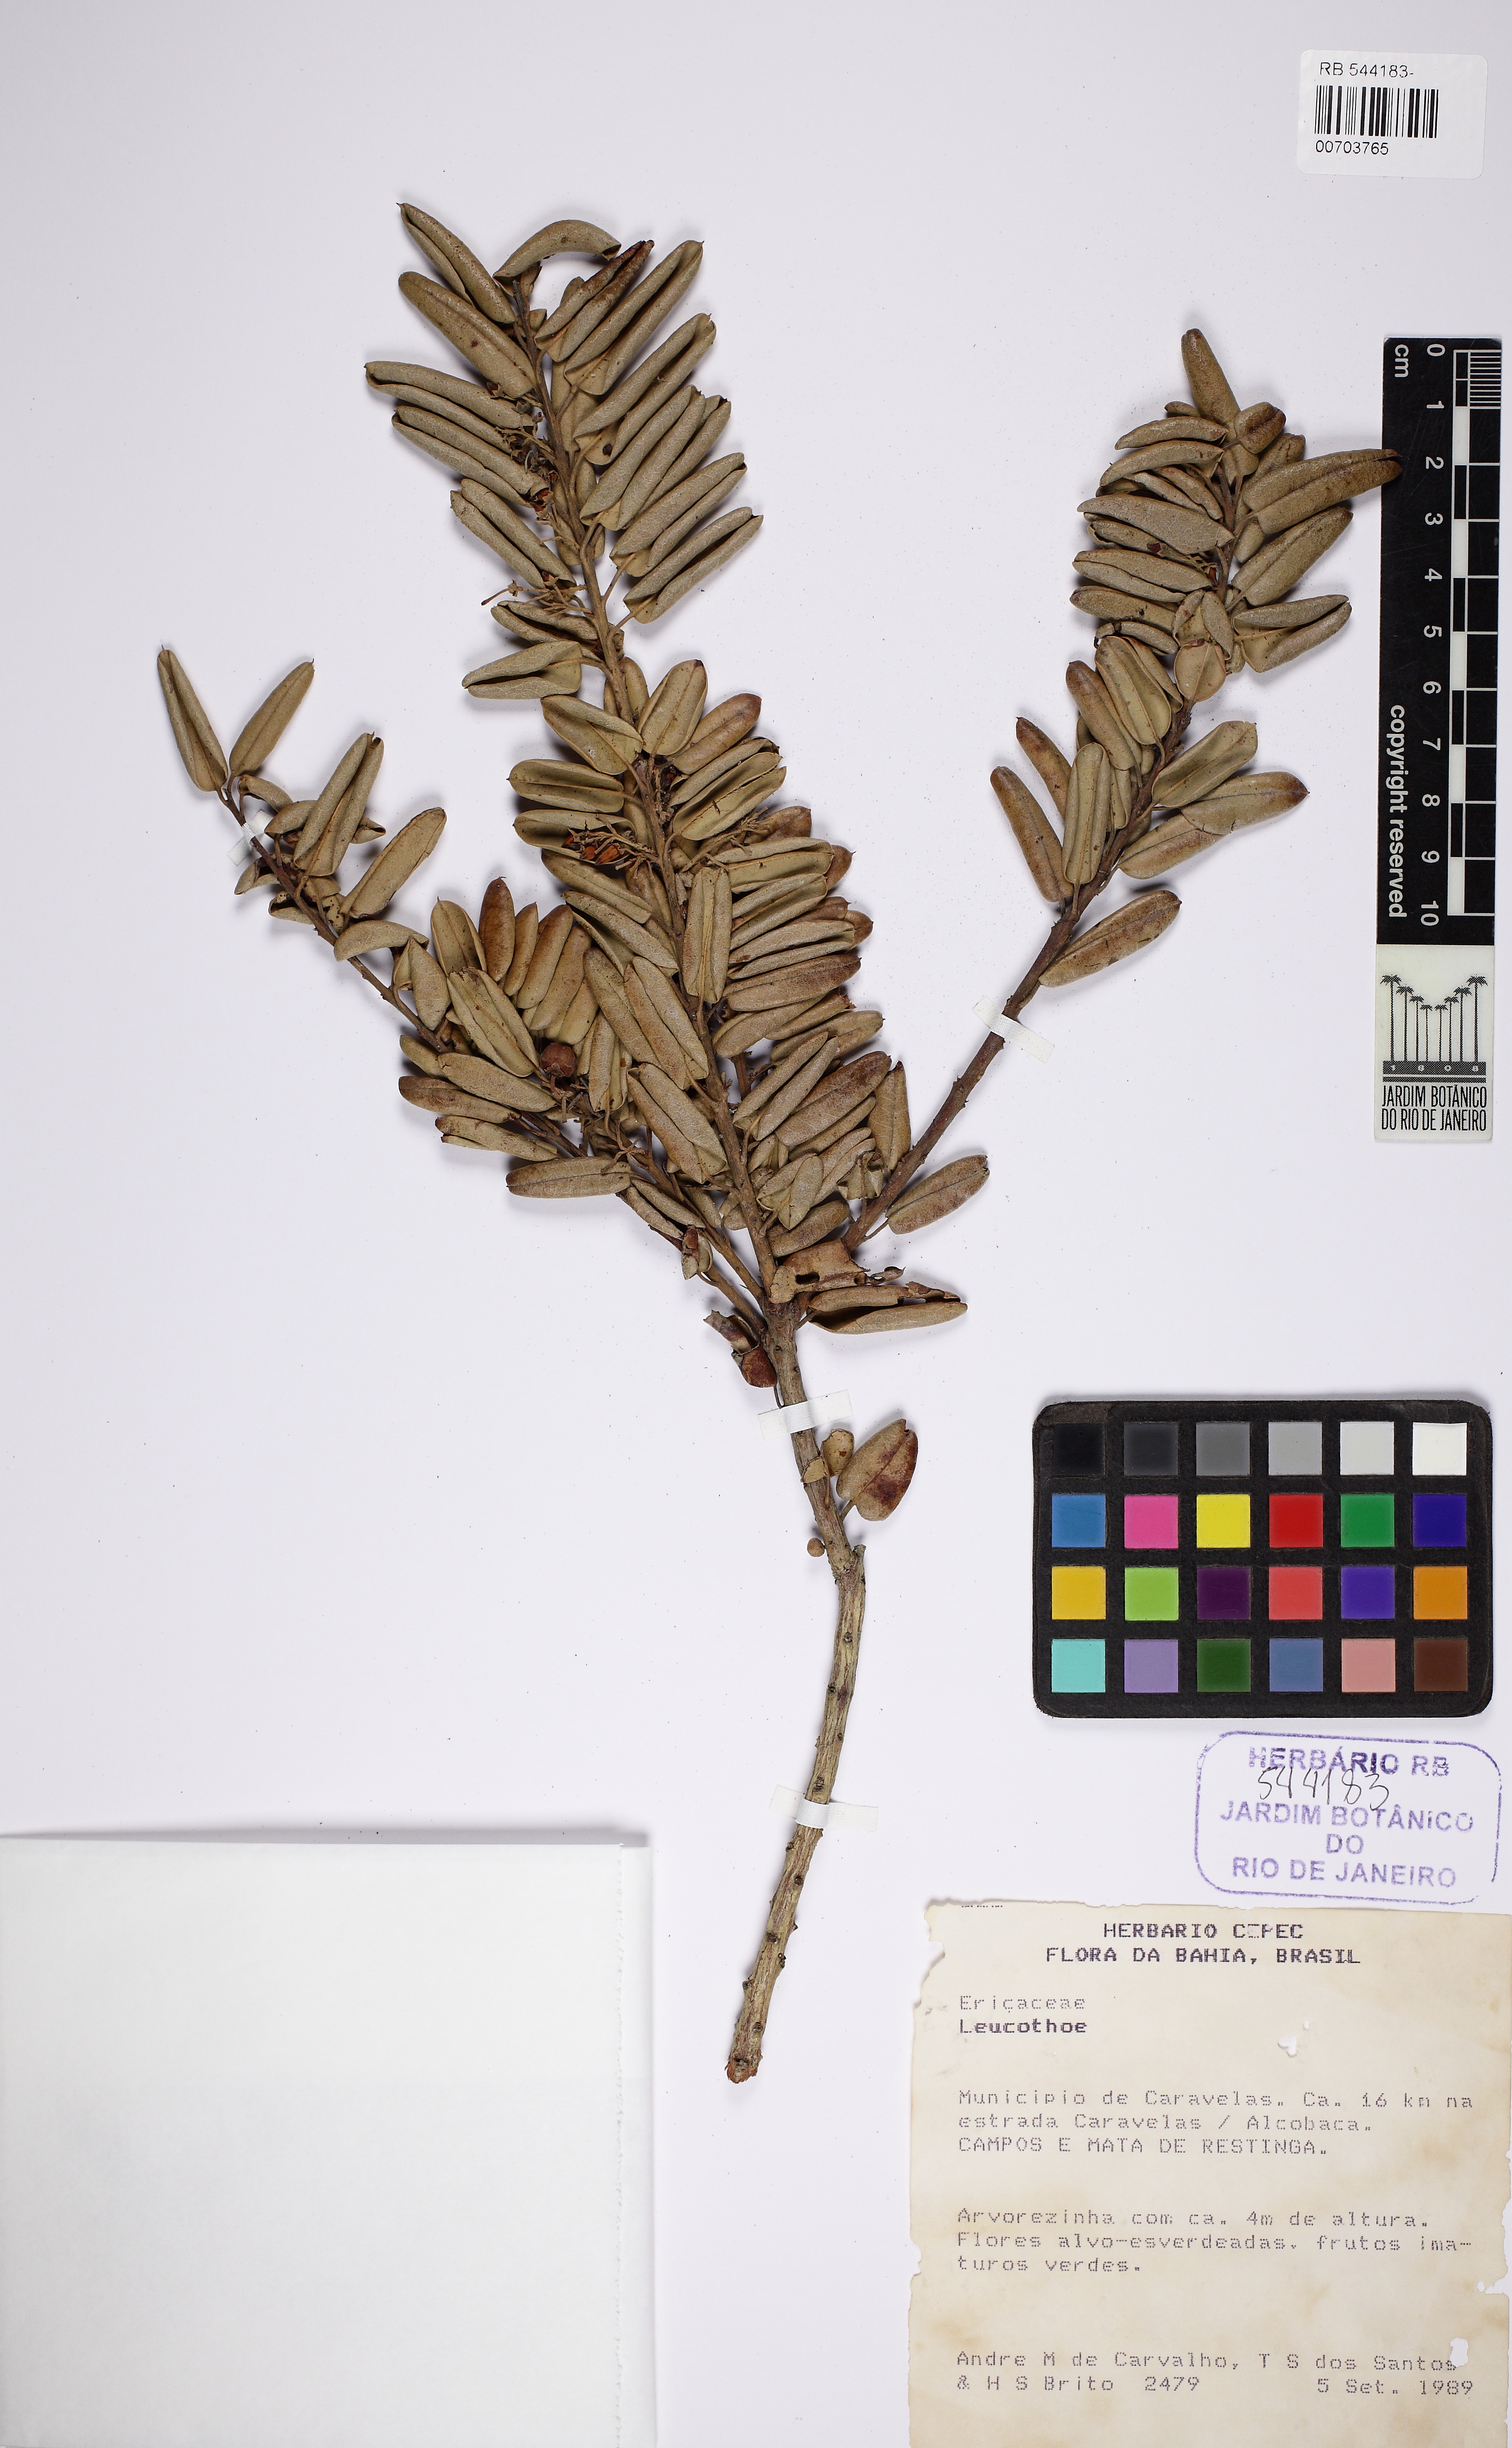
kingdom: Plantae
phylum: Tracheophyta
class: Magnoliopsida
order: Ericales
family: Ericaceae
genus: Agarista
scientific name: Agarista revoluta
